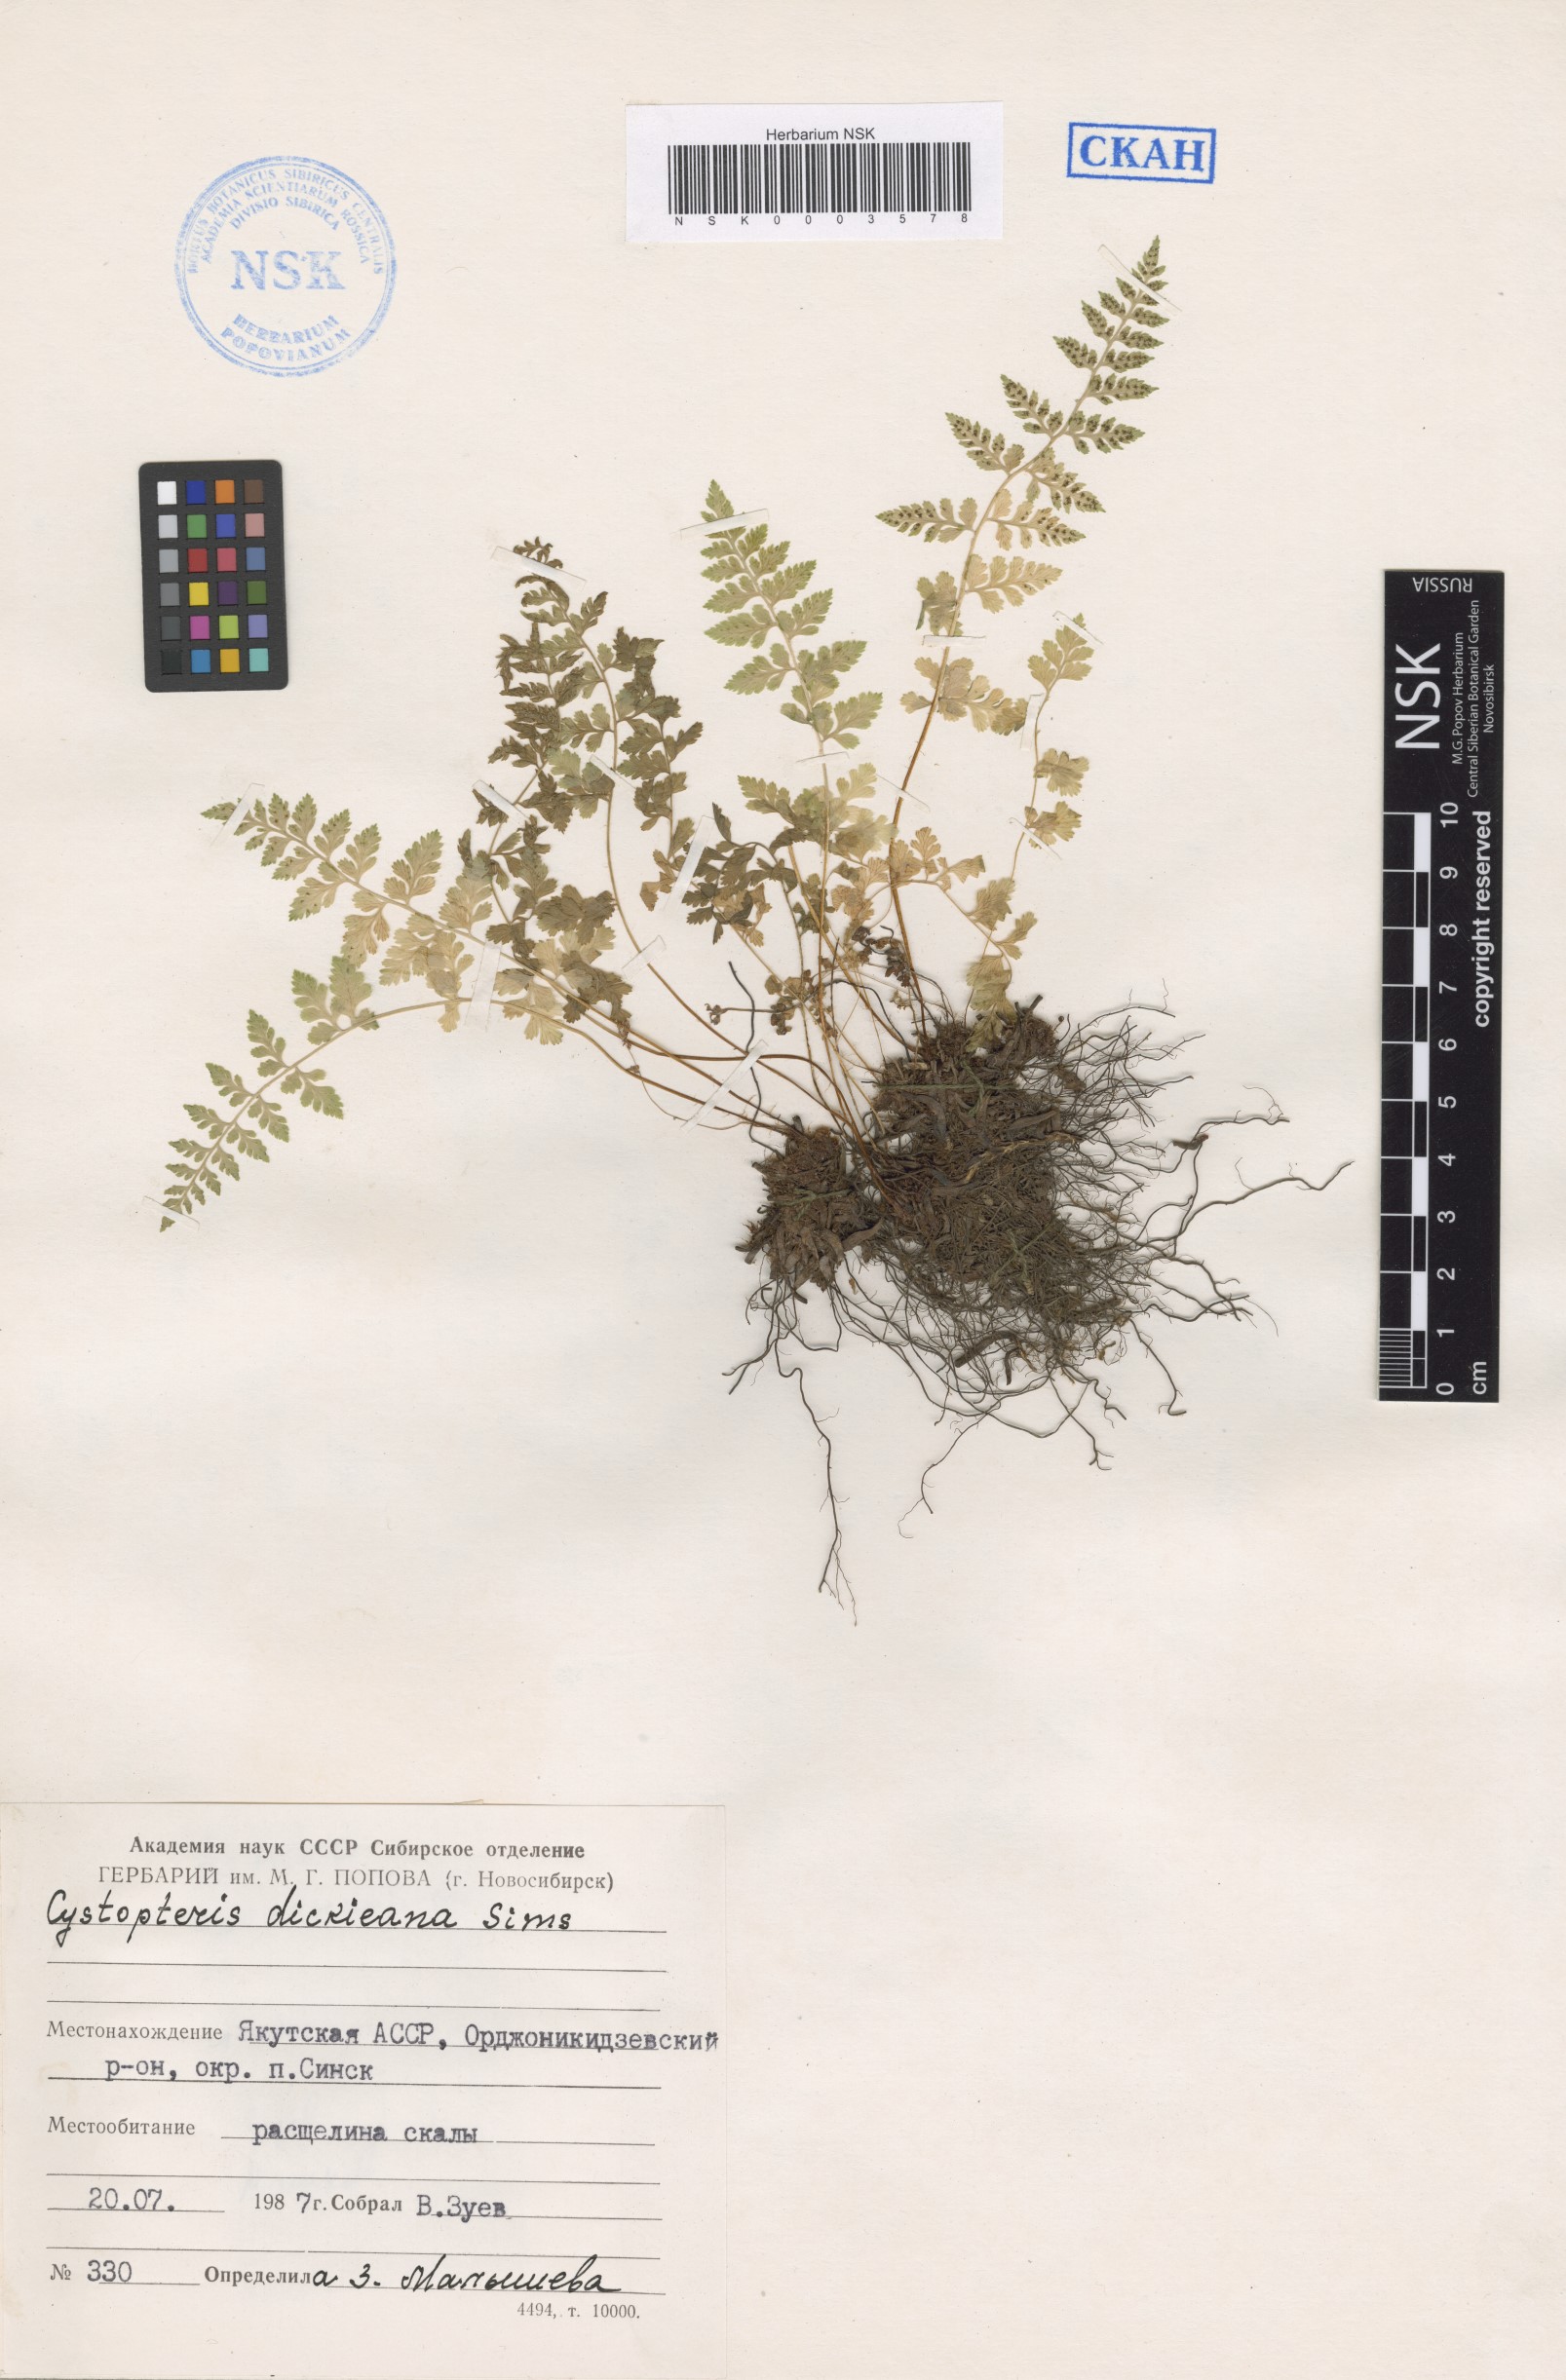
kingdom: Plantae
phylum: Tracheophyta
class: Polypodiopsida
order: Polypodiales
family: Cystopteridaceae
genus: Cystopteris
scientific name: Cystopteris dickieana
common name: Dickie's bladder-fern
